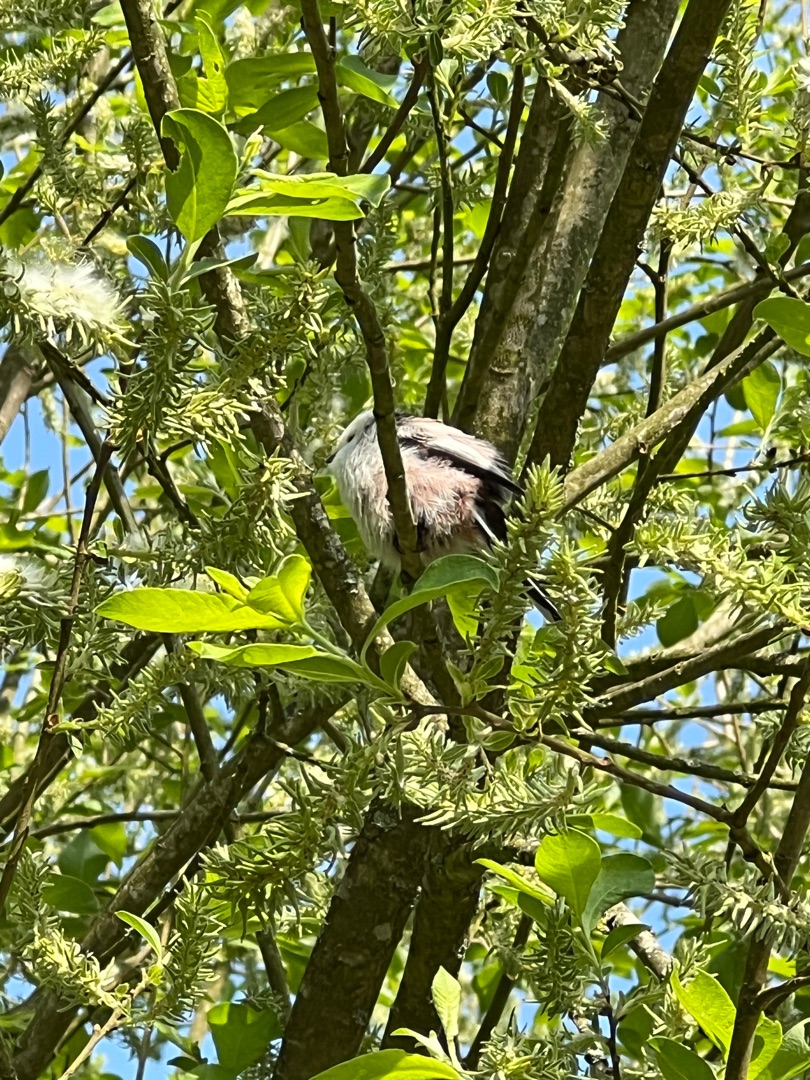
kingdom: Animalia
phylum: Chordata
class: Aves
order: Passeriformes
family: Aegithalidae
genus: Aegithalos
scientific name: Aegithalos caudatus
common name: Halemejse
